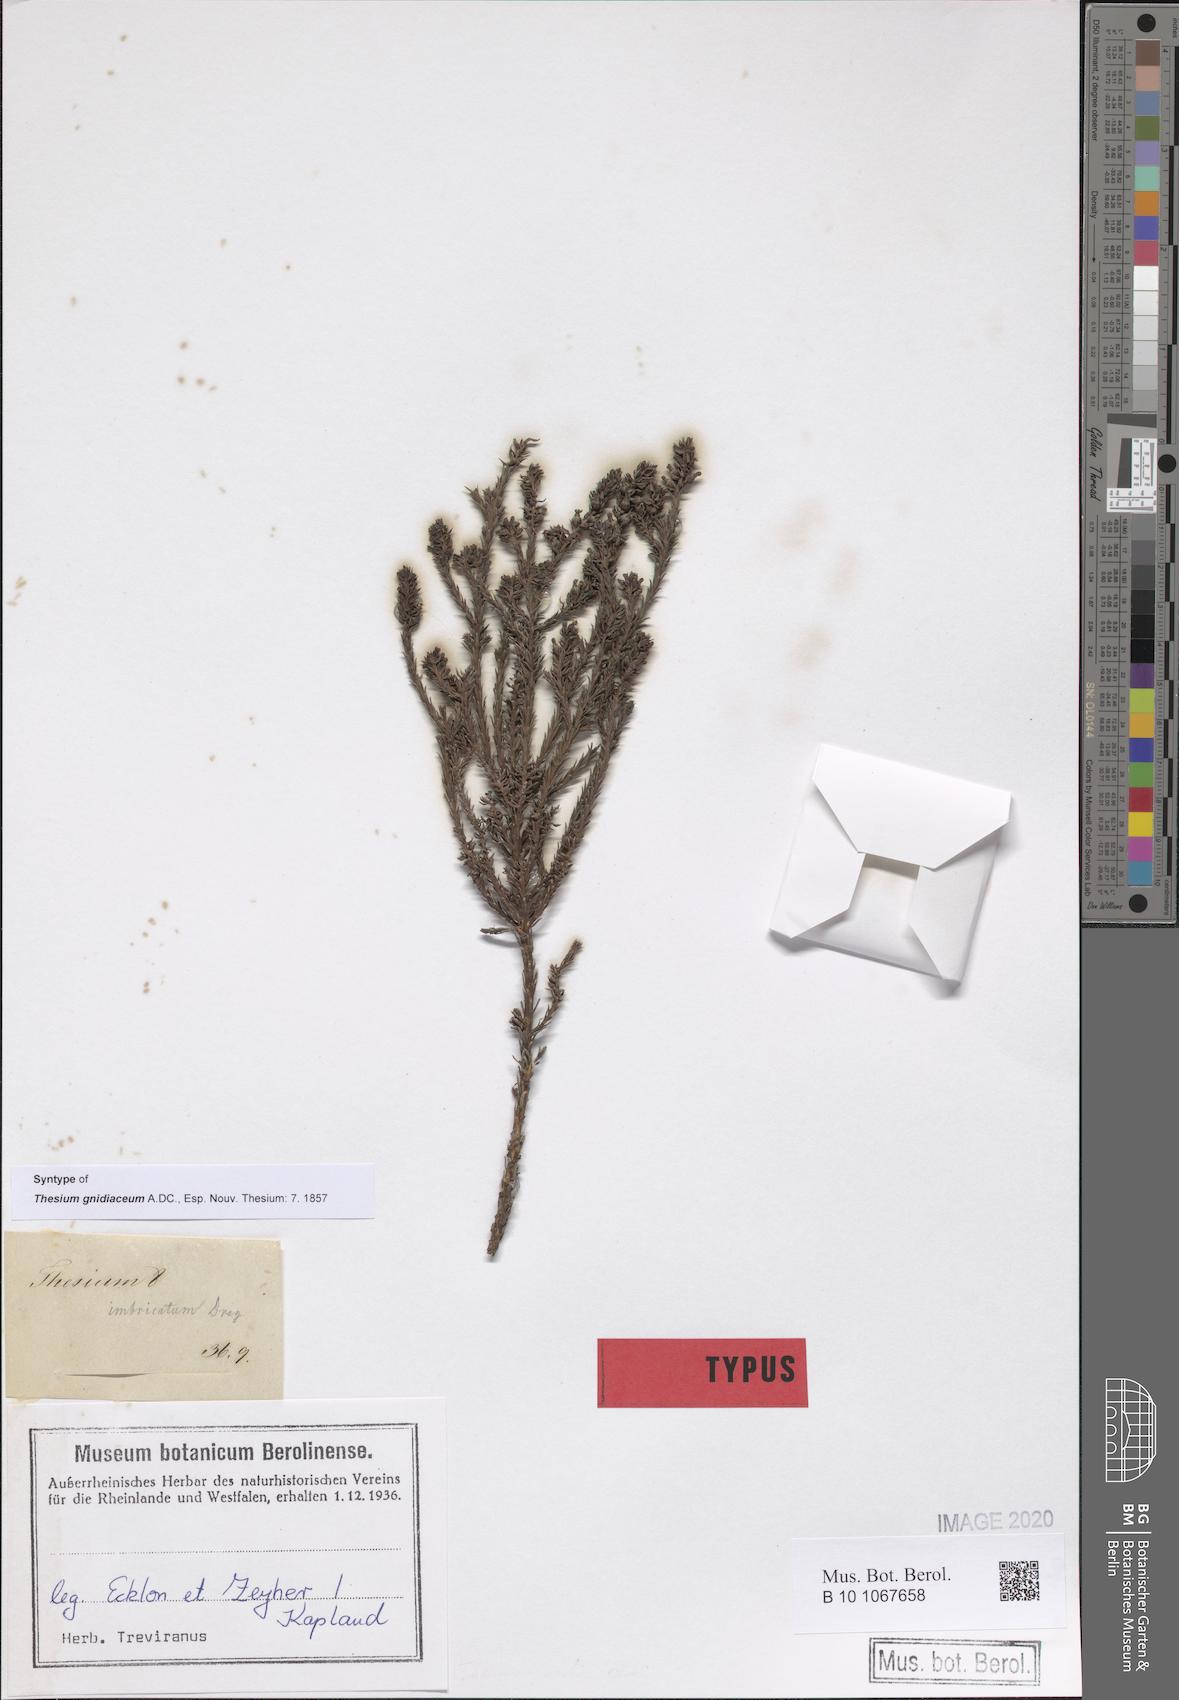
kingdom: Plantae
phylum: Tracheophyta
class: Magnoliopsida
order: Santalales
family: Thesiaceae
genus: Thesium
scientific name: Thesium gnidiaceum
